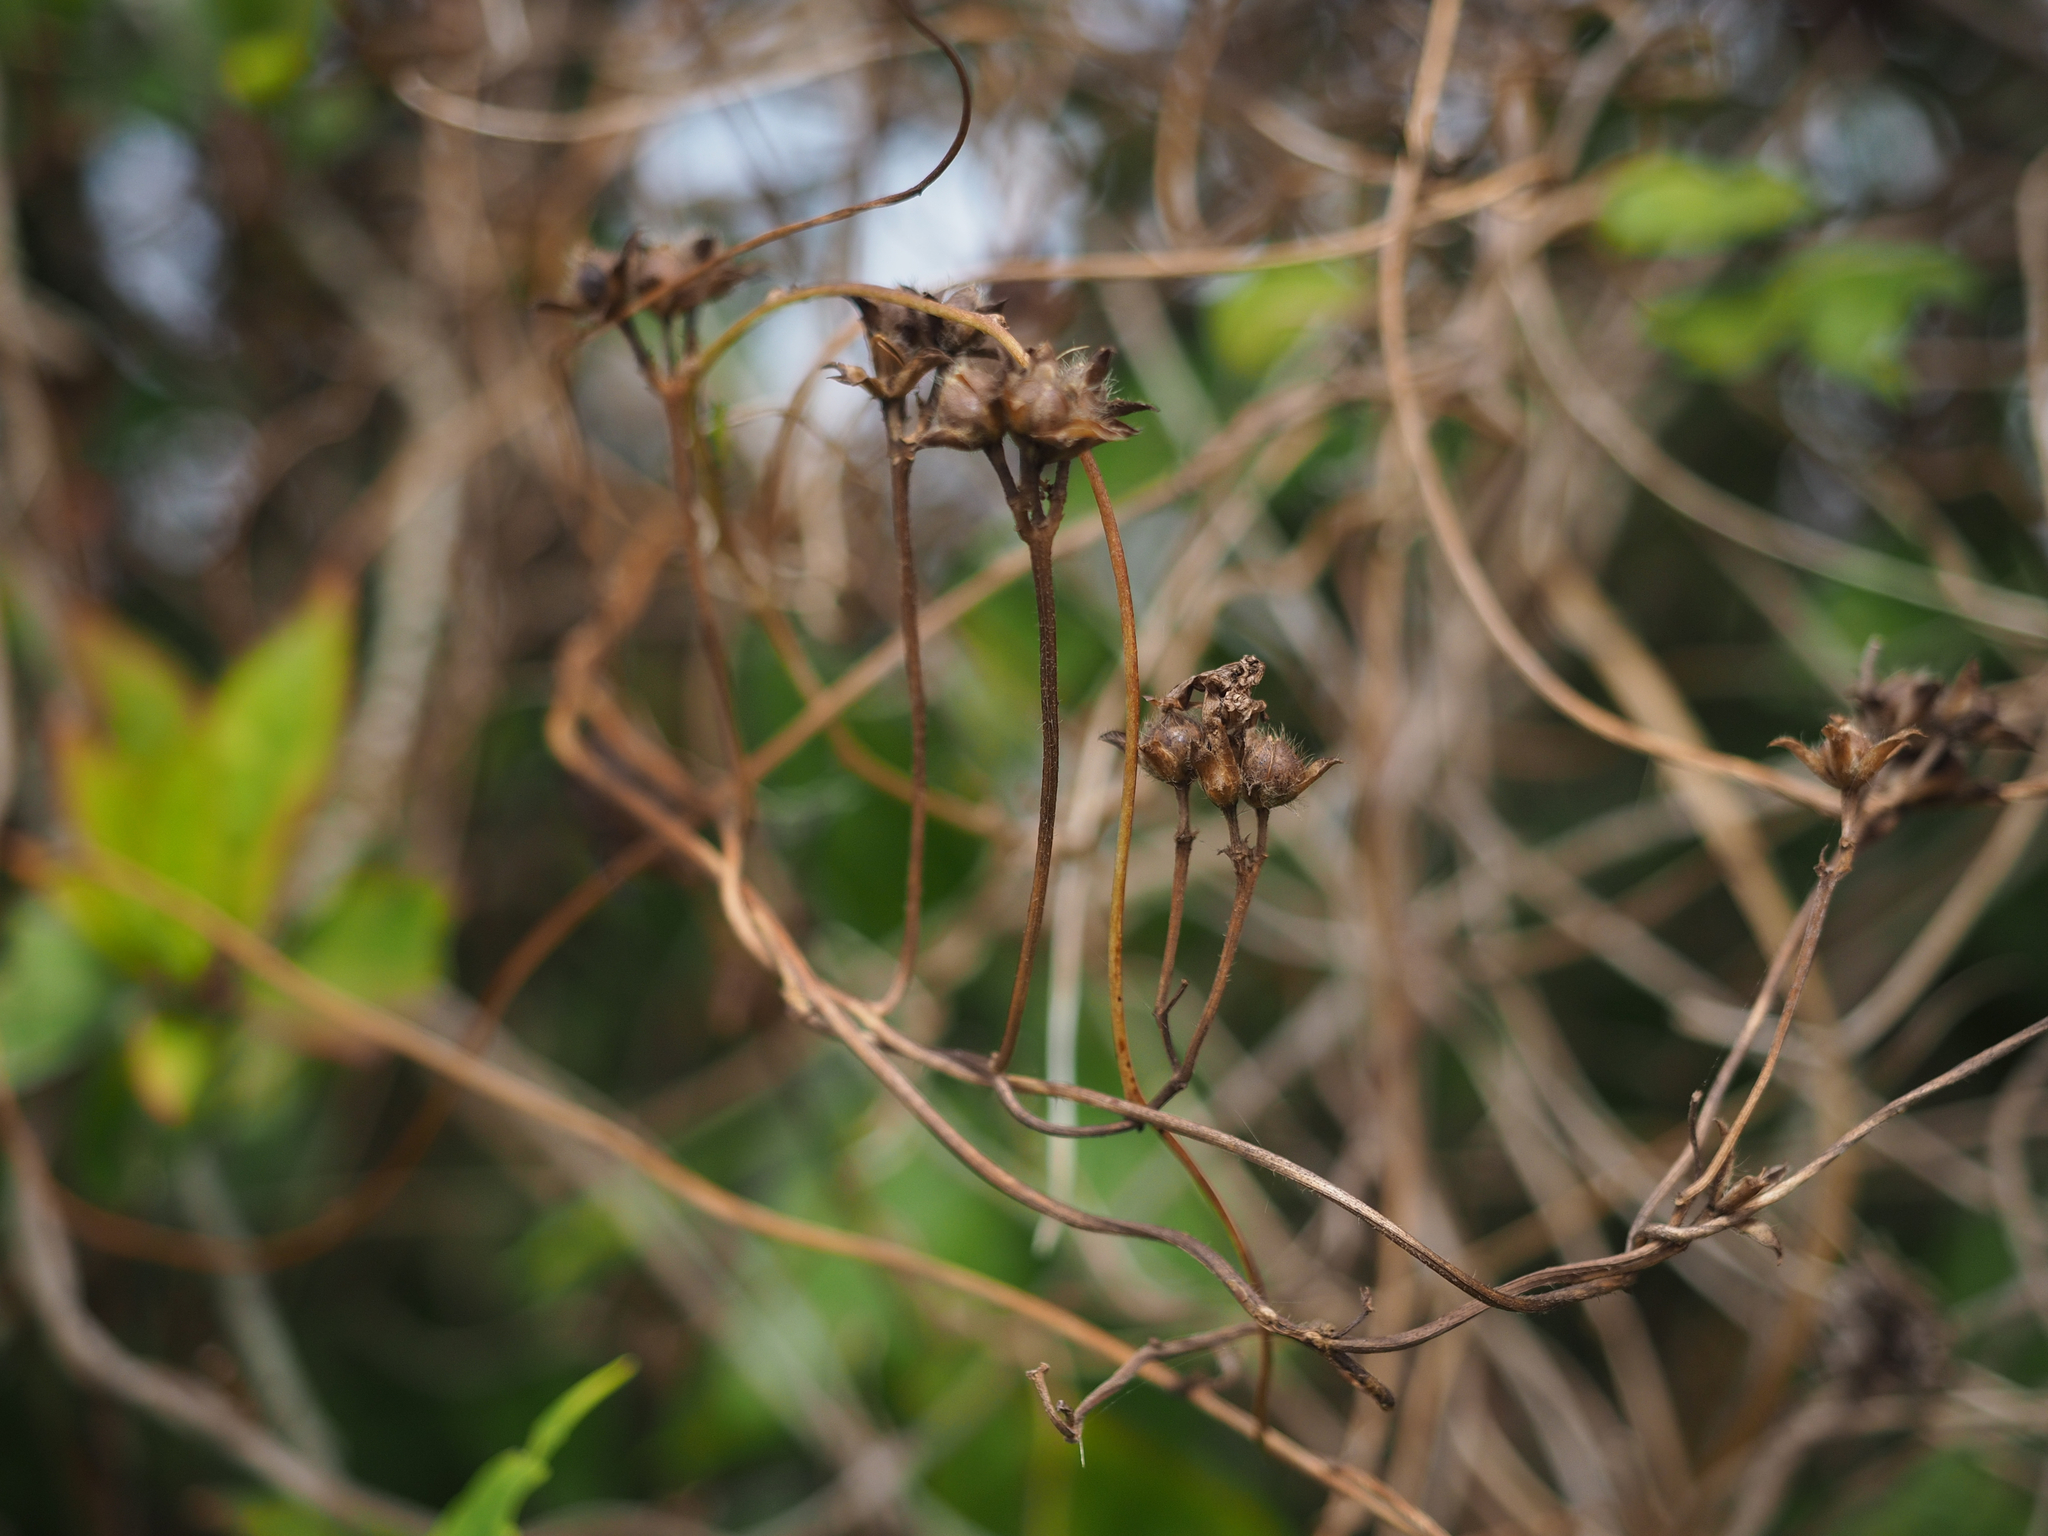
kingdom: Plantae
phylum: Tracheophyta
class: Magnoliopsida
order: Solanales
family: Convolvulaceae
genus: Ipomoea
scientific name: Ipomoea cairica
